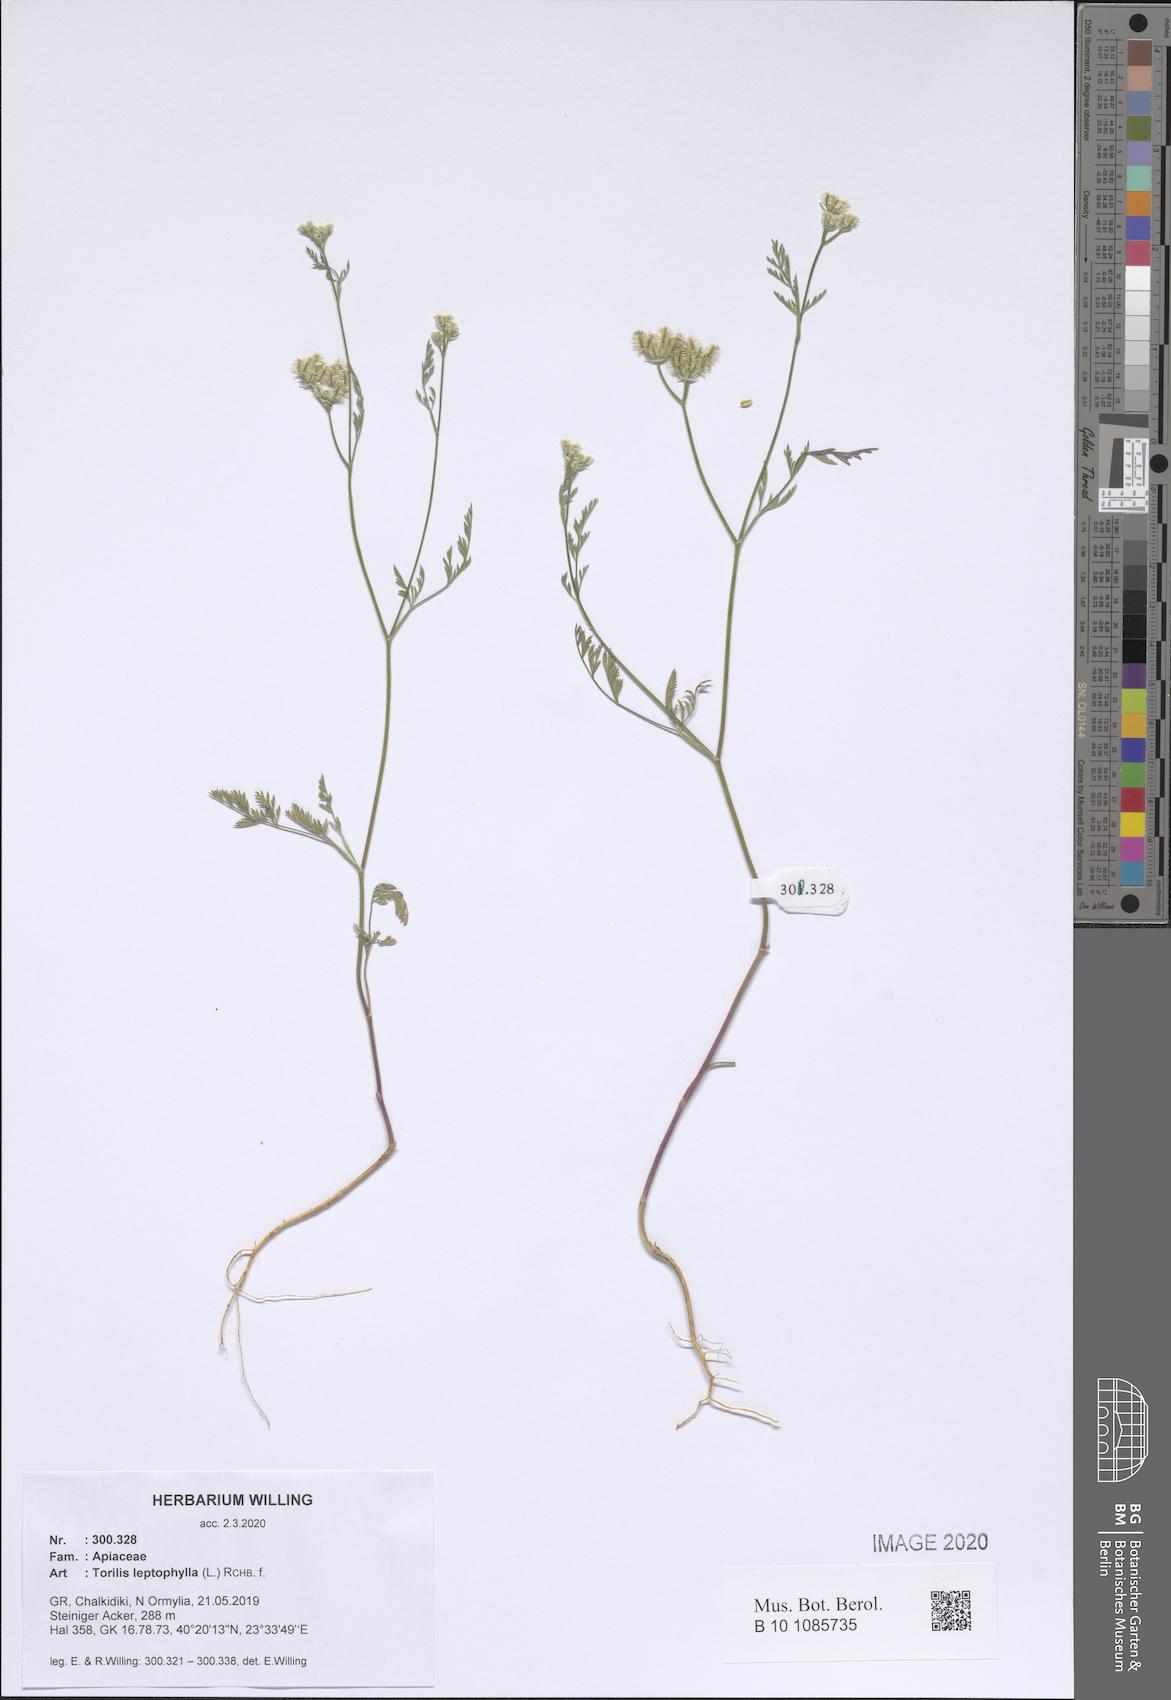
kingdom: Plantae
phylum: Tracheophyta
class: Magnoliopsida
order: Apiales
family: Apiaceae
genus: Torilis
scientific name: Torilis leptophylla
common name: Bristlefruit hedgeparsley
